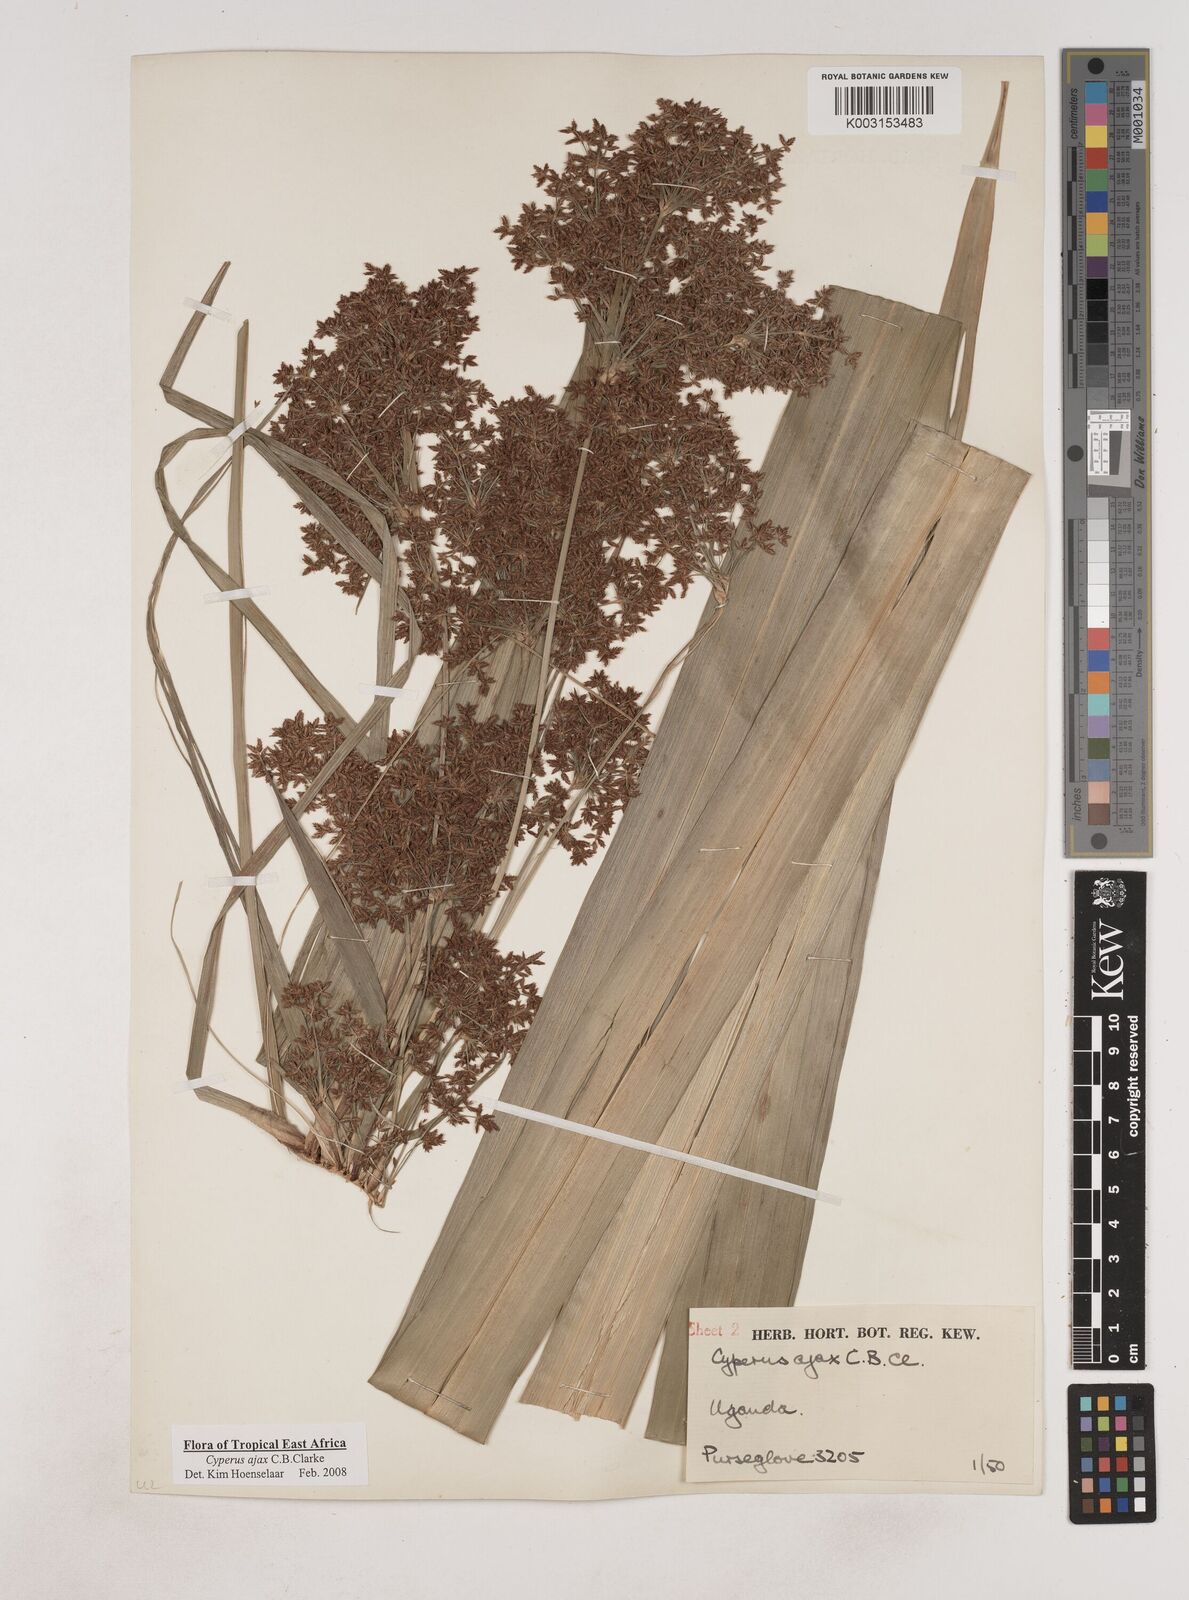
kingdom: Plantae
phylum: Tracheophyta
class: Liliopsida
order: Poales
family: Cyperaceae
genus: Cyperus
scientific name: Cyperus ajax
